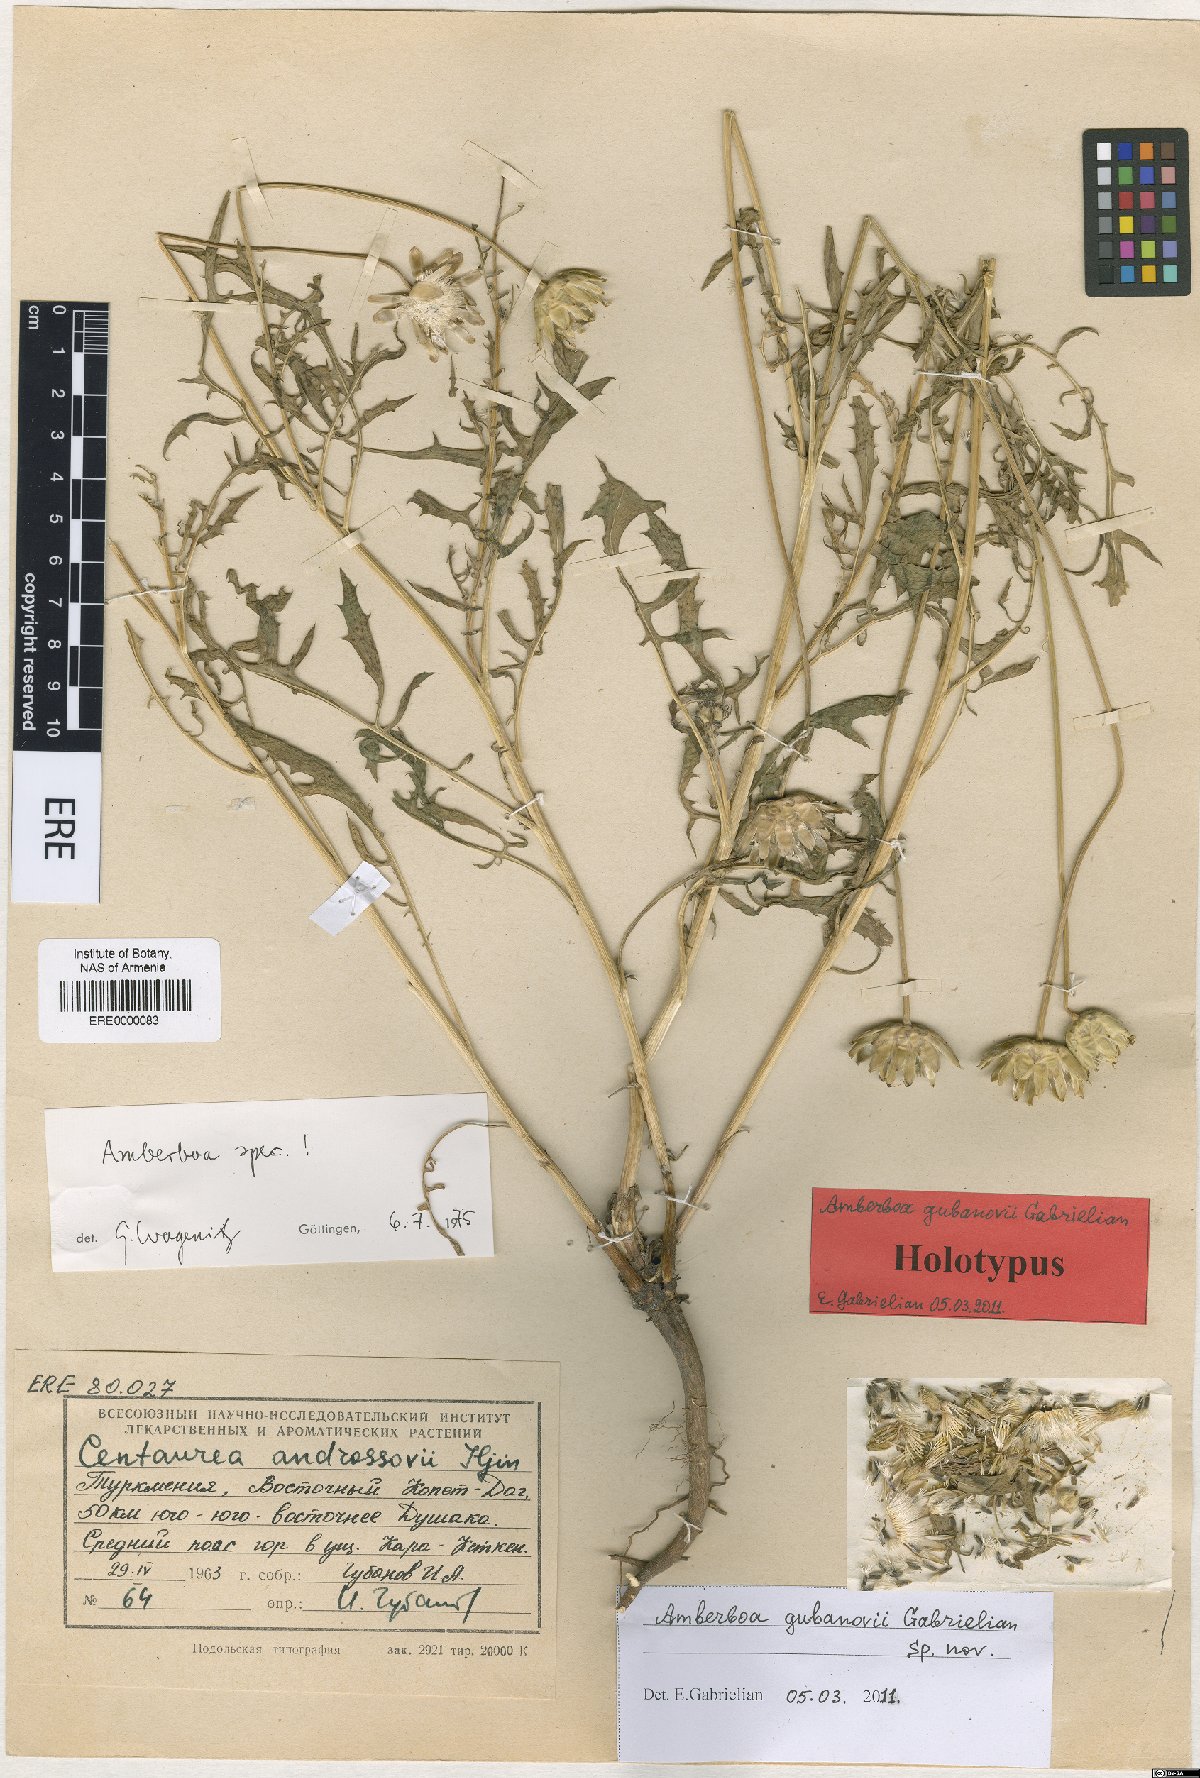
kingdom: Plantae
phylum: Tracheophyta
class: Magnoliopsida
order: Asterales
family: Asteraceae
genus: Amberboa
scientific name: Amberboa gubanovii
